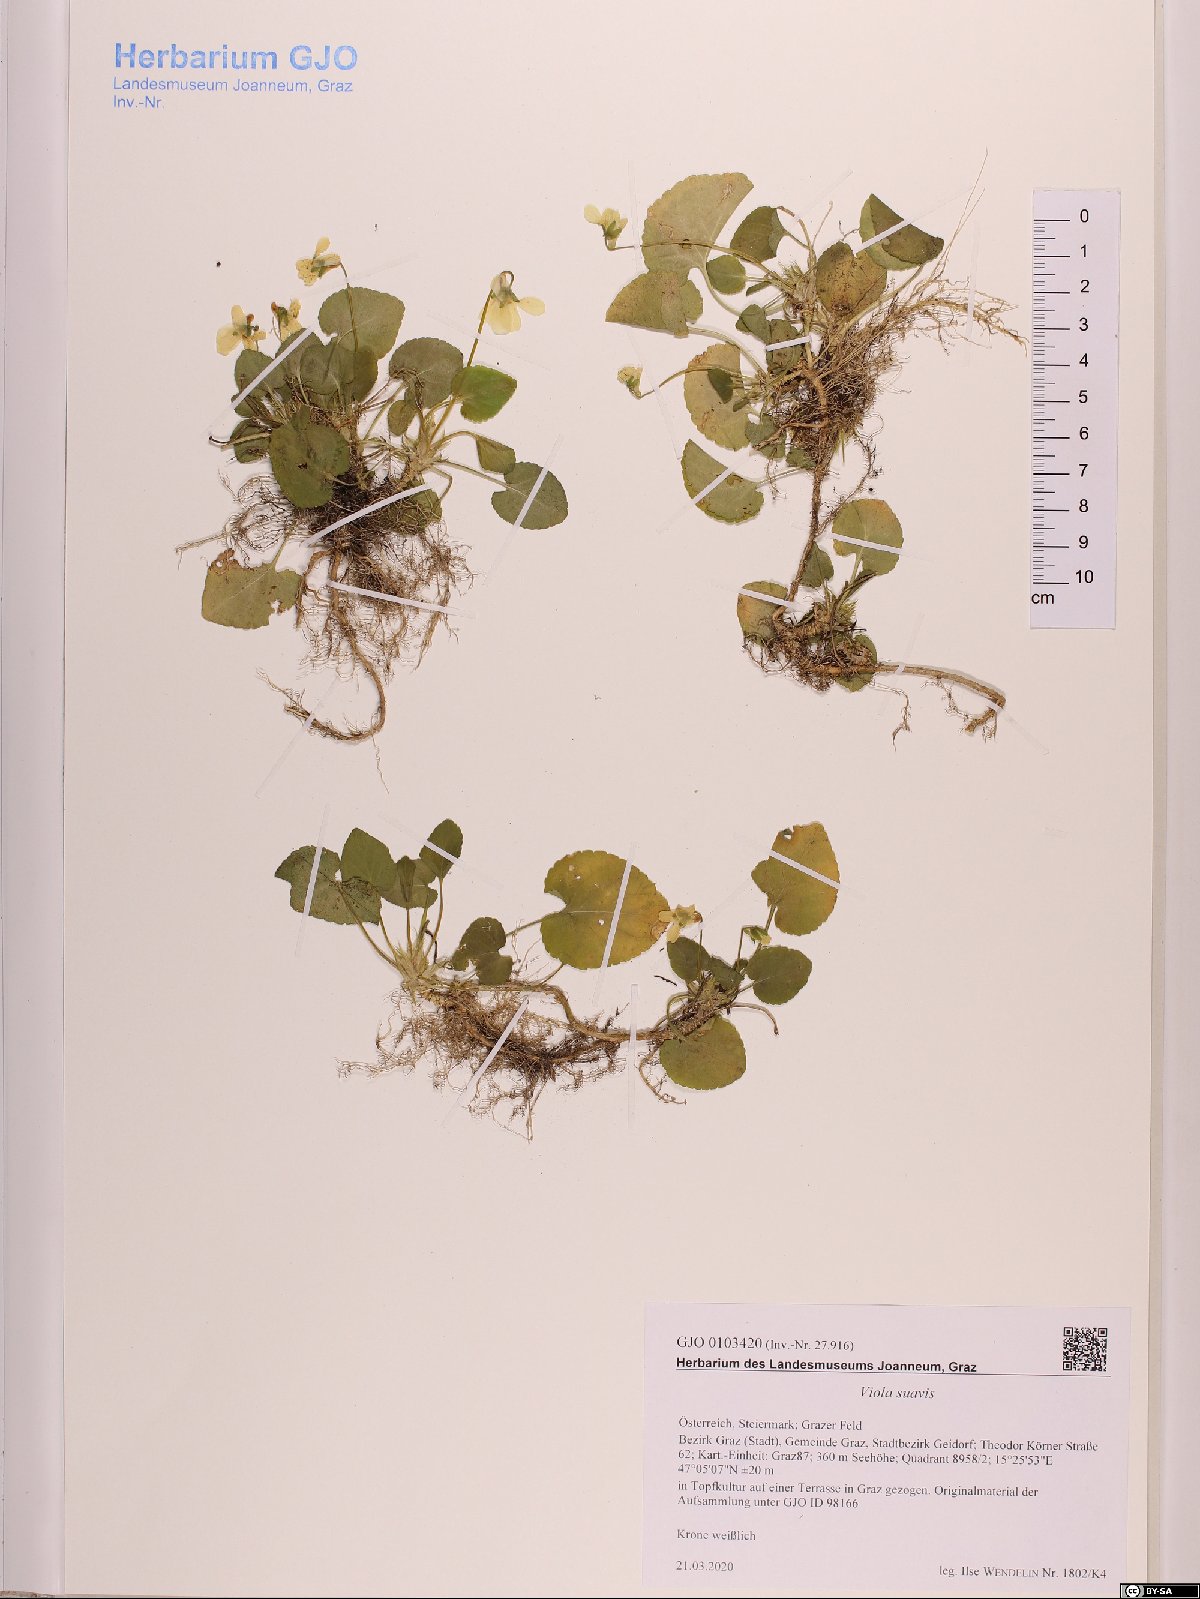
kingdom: Plantae
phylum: Tracheophyta
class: Magnoliopsida
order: Malpighiales
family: Violaceae
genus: Viola
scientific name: Viola suavis
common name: Russian violet
